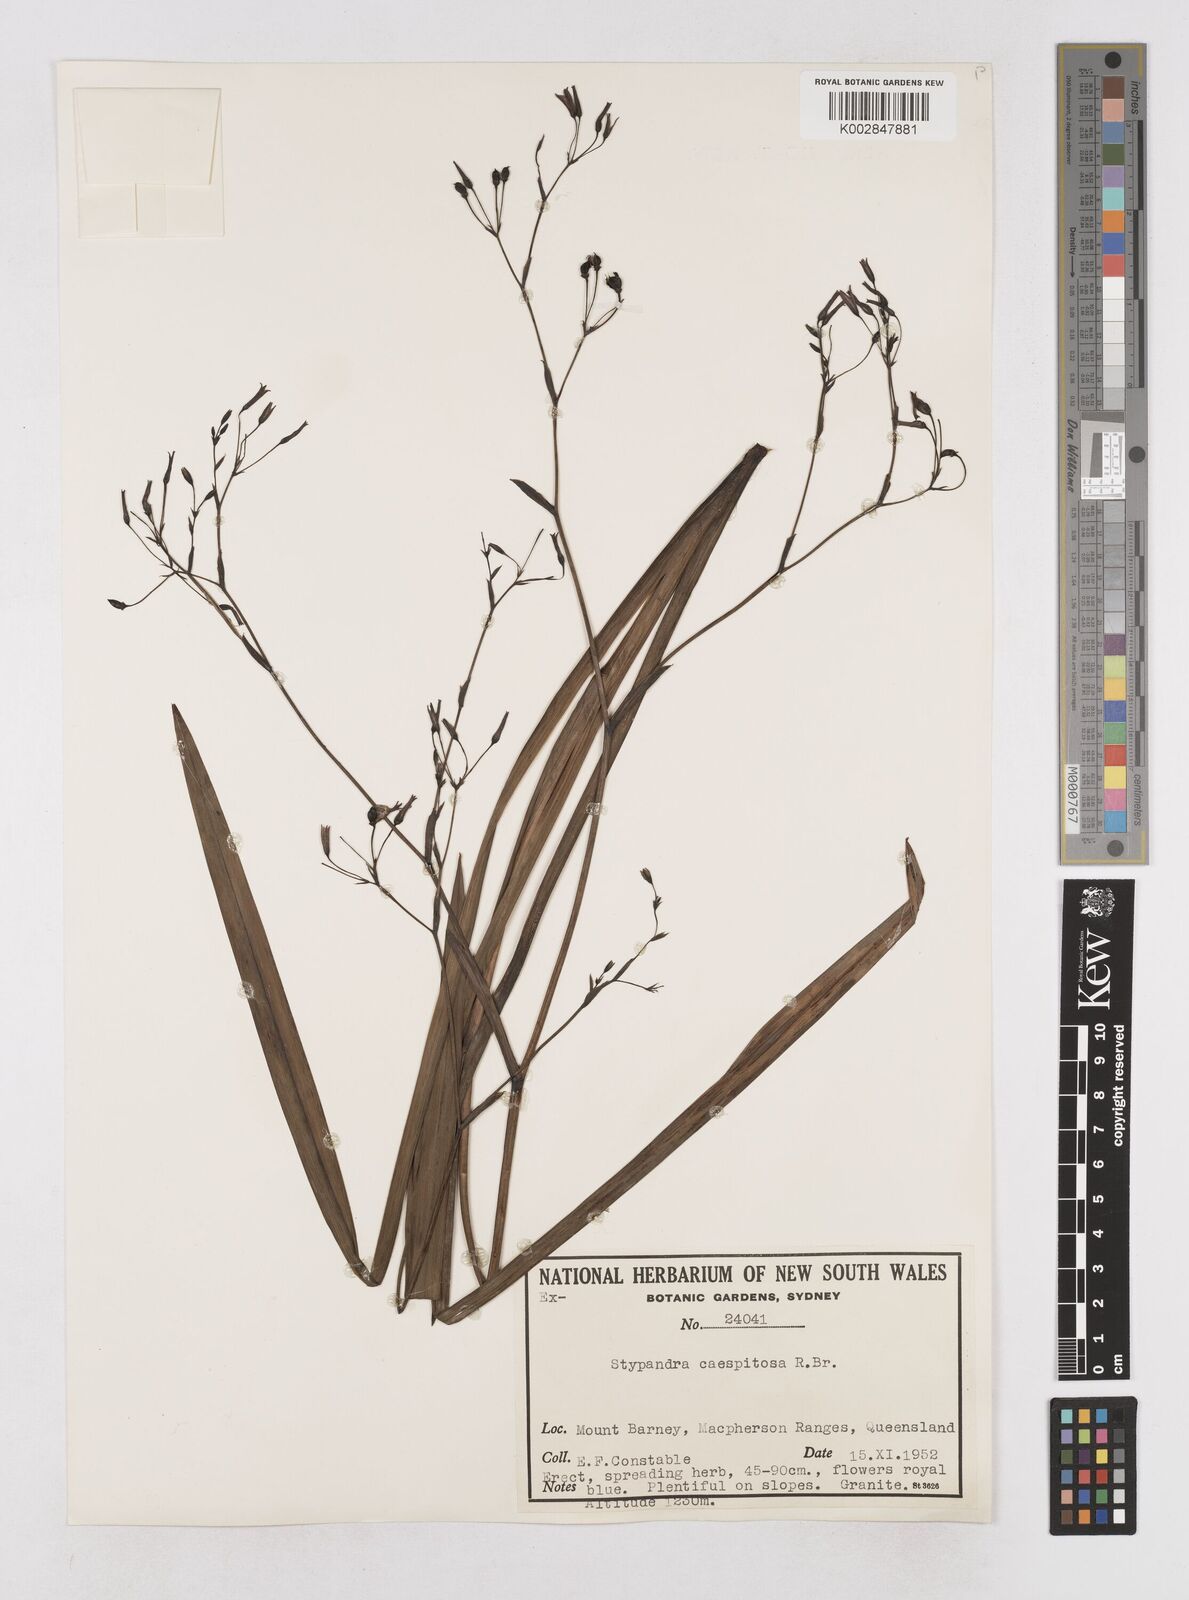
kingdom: Plantae
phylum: Tracheophyta
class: Liliopsida
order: Asparagales
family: Asphodelaceae
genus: Thelionema
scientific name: Thelionema caespitosum
